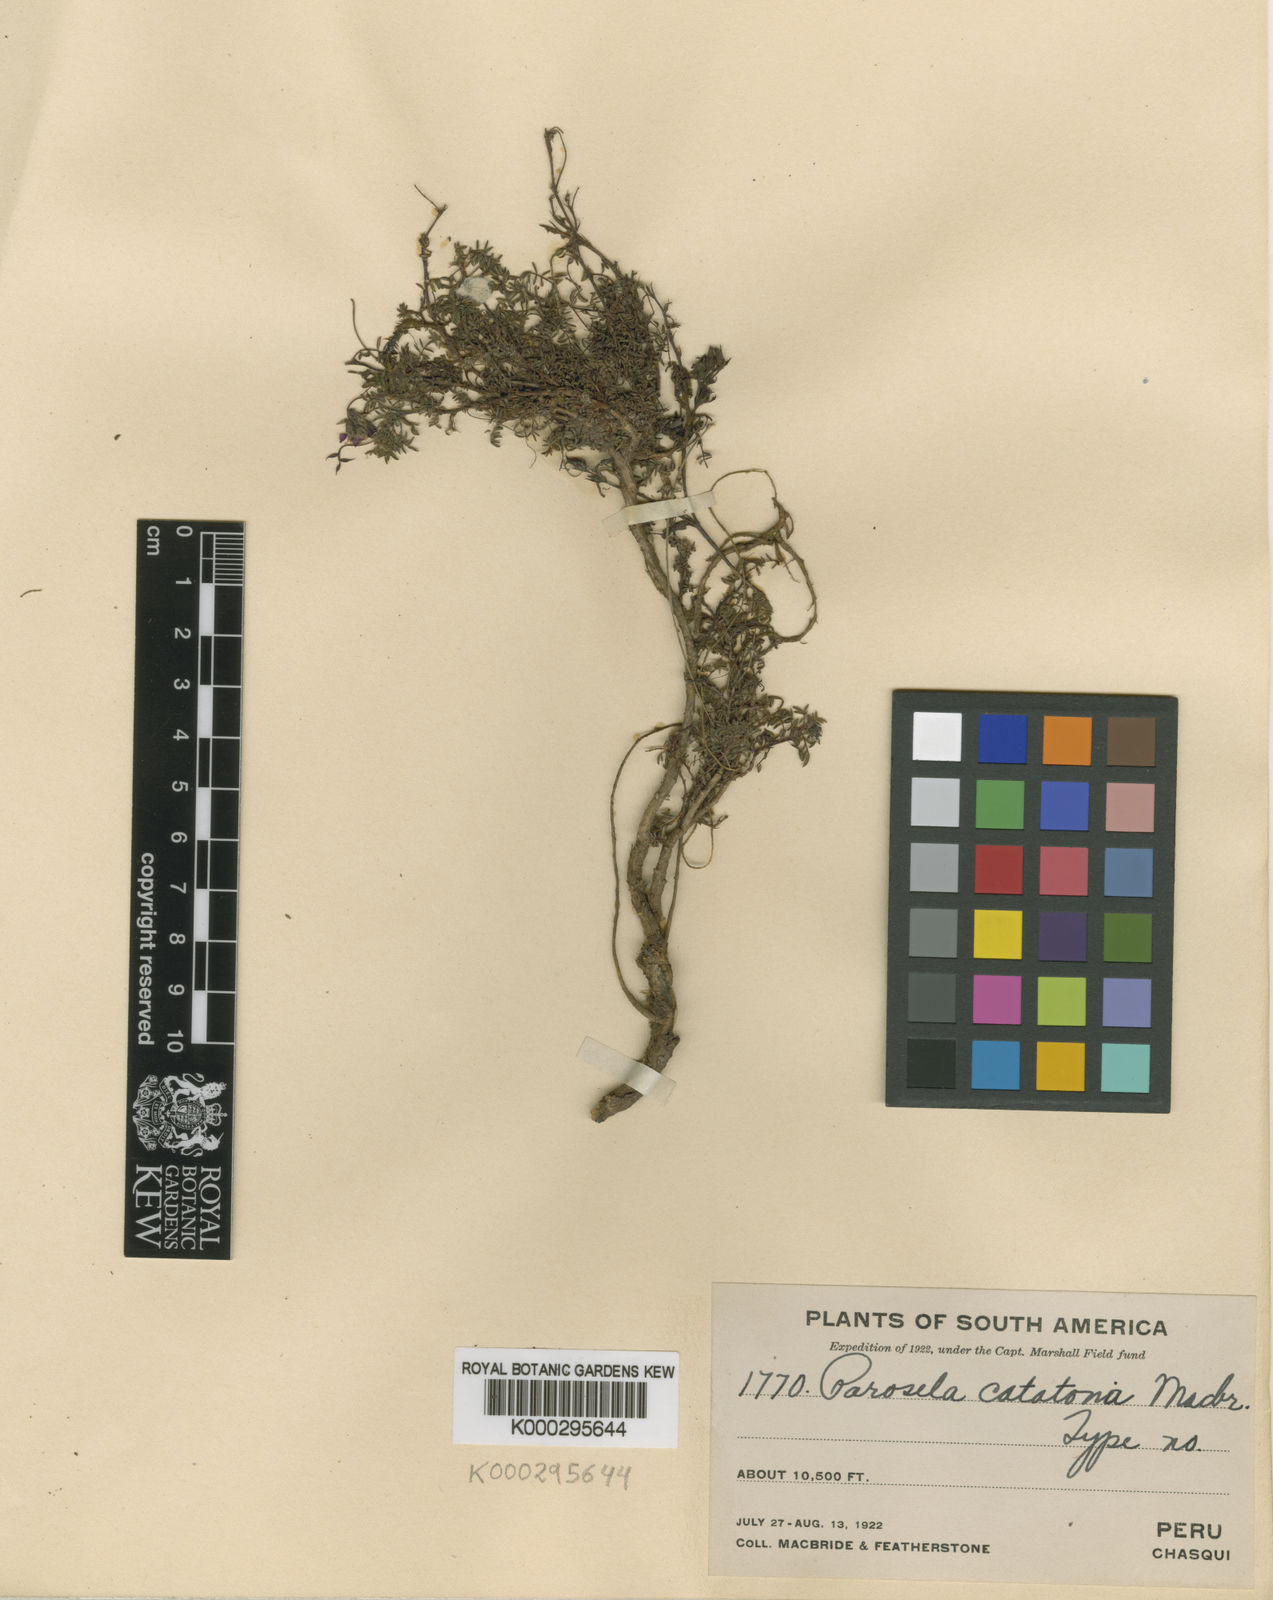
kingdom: Plantae
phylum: Tracheophyta
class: Magnoliopsida
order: Fabales
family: Fabaceae
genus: Dalea
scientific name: Dalea cylindrica
